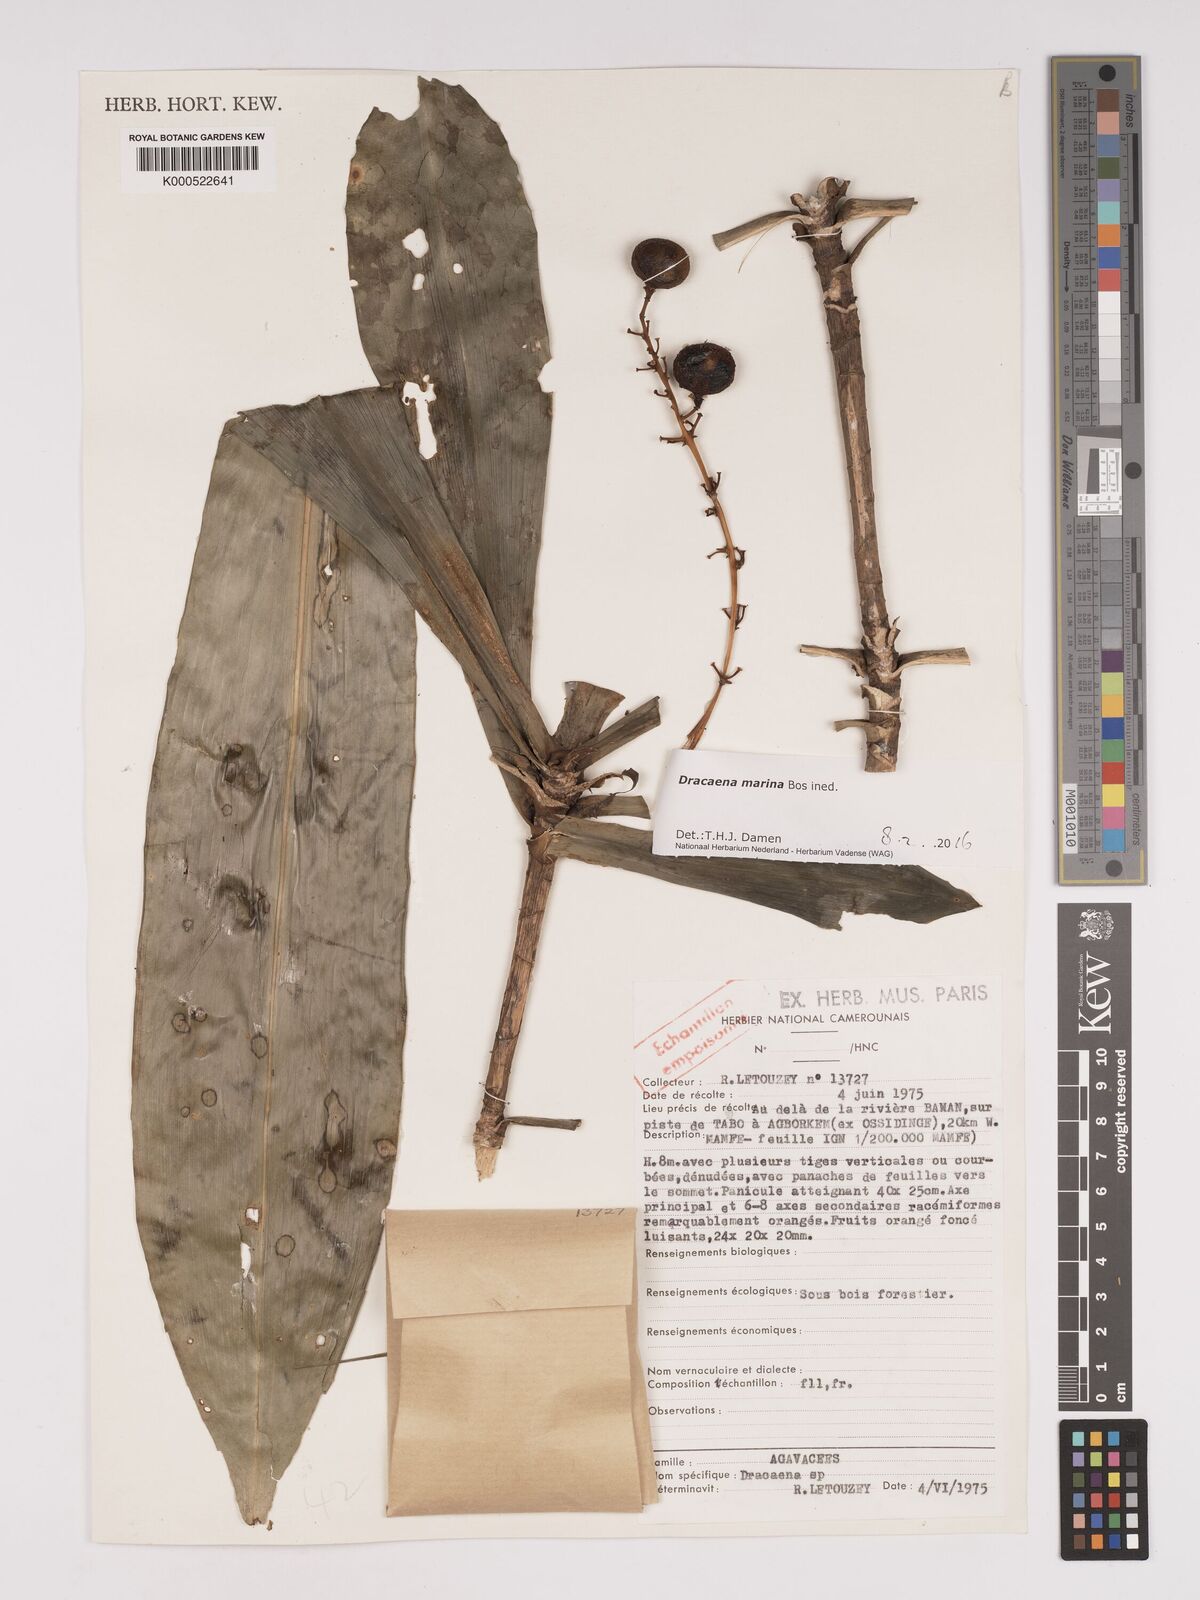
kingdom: Plantae
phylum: Tracheophyta
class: Liliopsida
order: Asparagales
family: Asparagaceae
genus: Dracaena
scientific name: Dracaena marina
